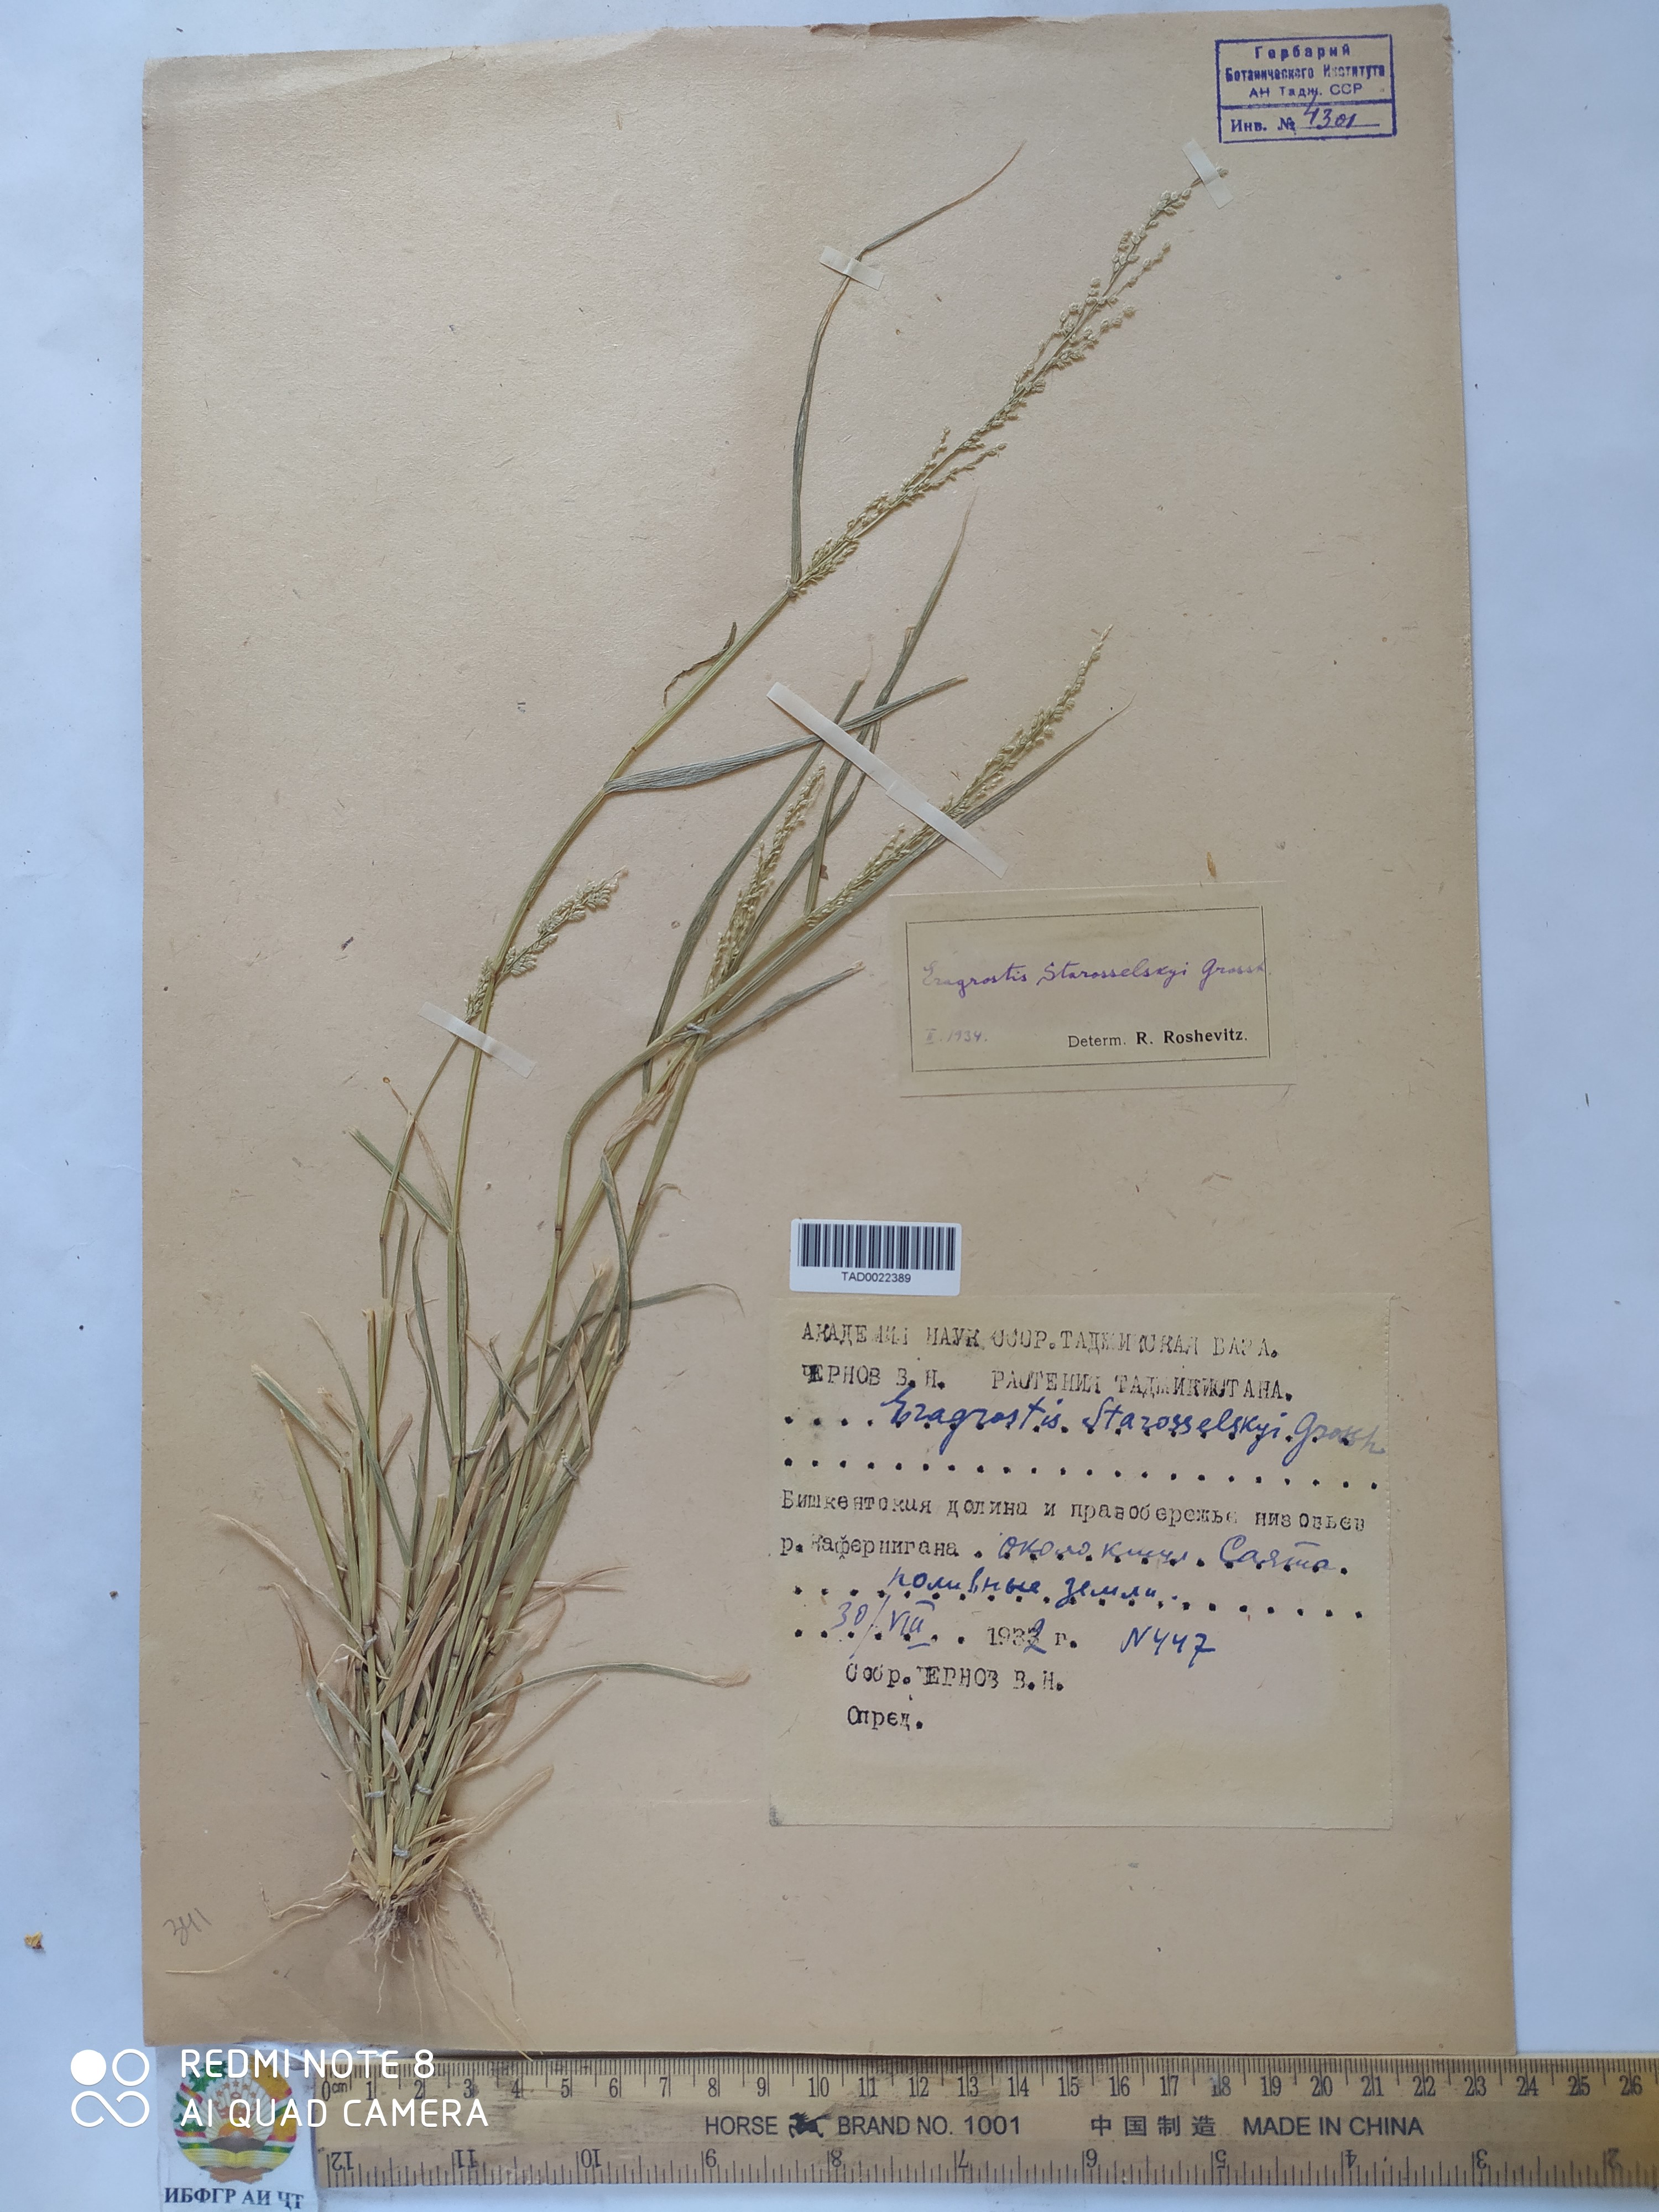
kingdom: Plantae
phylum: Tracheophyta
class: Liliopsida
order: Poales
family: Poaceae
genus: Eragrostis
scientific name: Eragrostis cilianensis
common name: Stinkgrass
